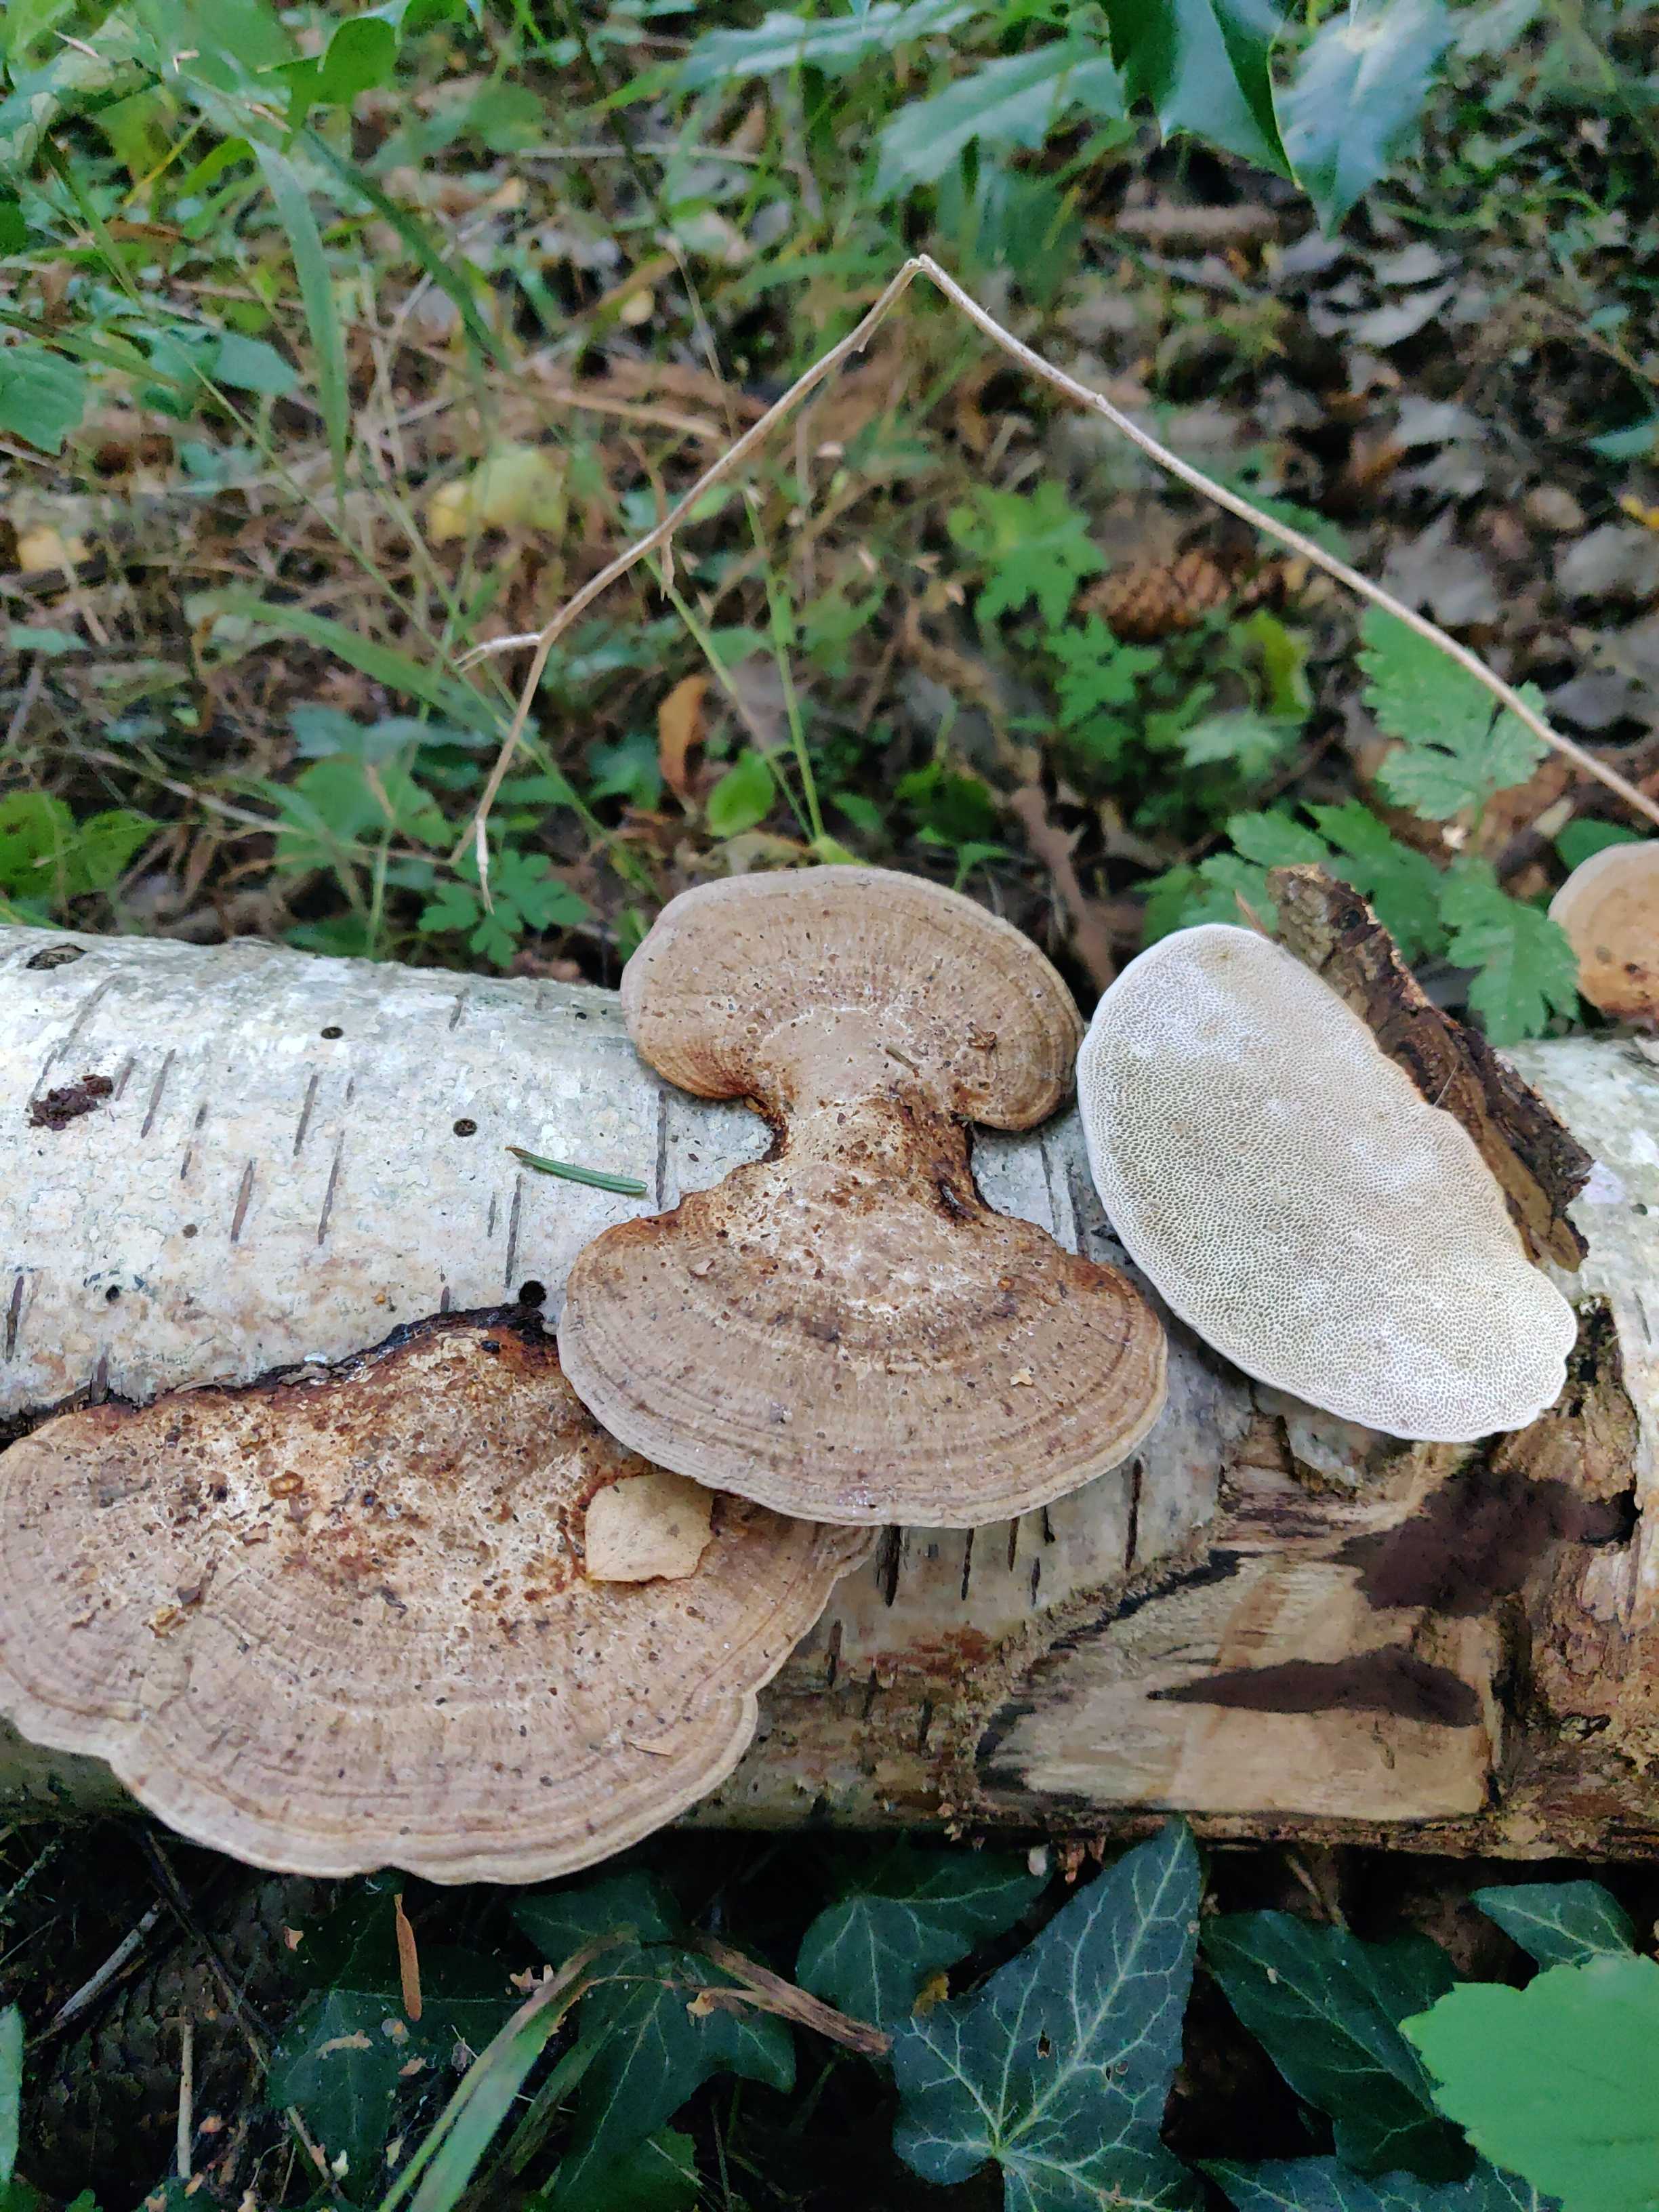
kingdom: Fungi
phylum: Basidiomycota
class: Agaricomycetes
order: Polyporales
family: Polyporaceae
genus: Daedaleopsis
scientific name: Daedaleopsis confragosa
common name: rødmende læderporesvamp
